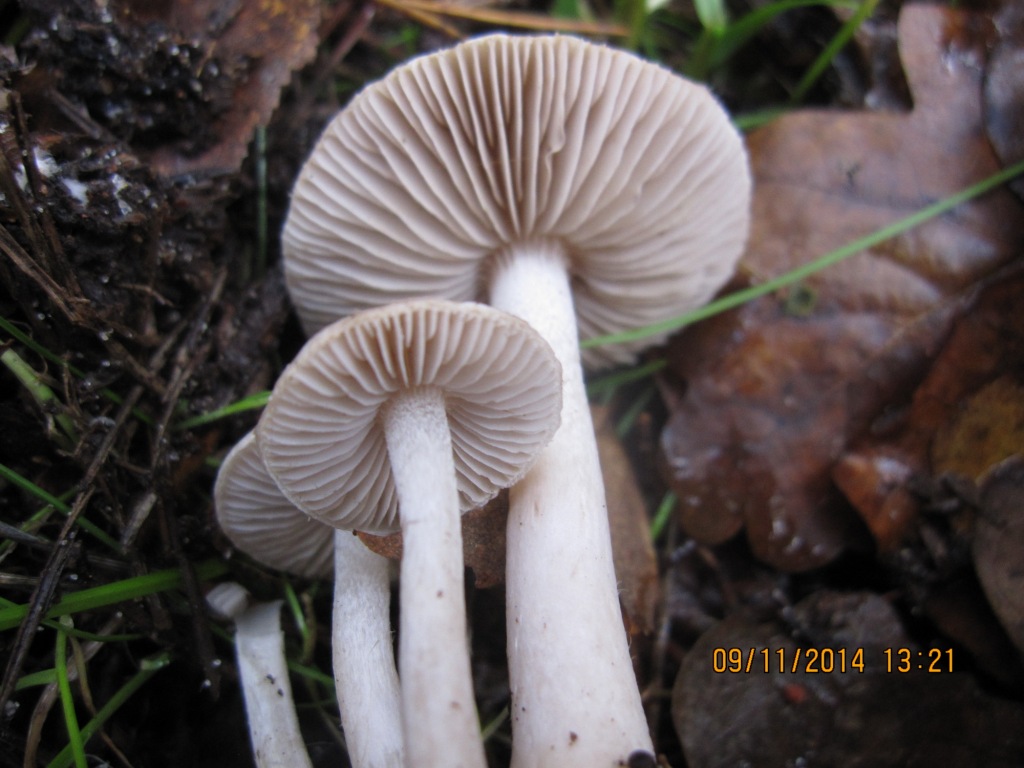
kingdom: Fungi
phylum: Basidiomycota
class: Agaricomycetes
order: Agaricales
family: Inocybaceae
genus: Inocybe
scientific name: Inocybe geophylla
